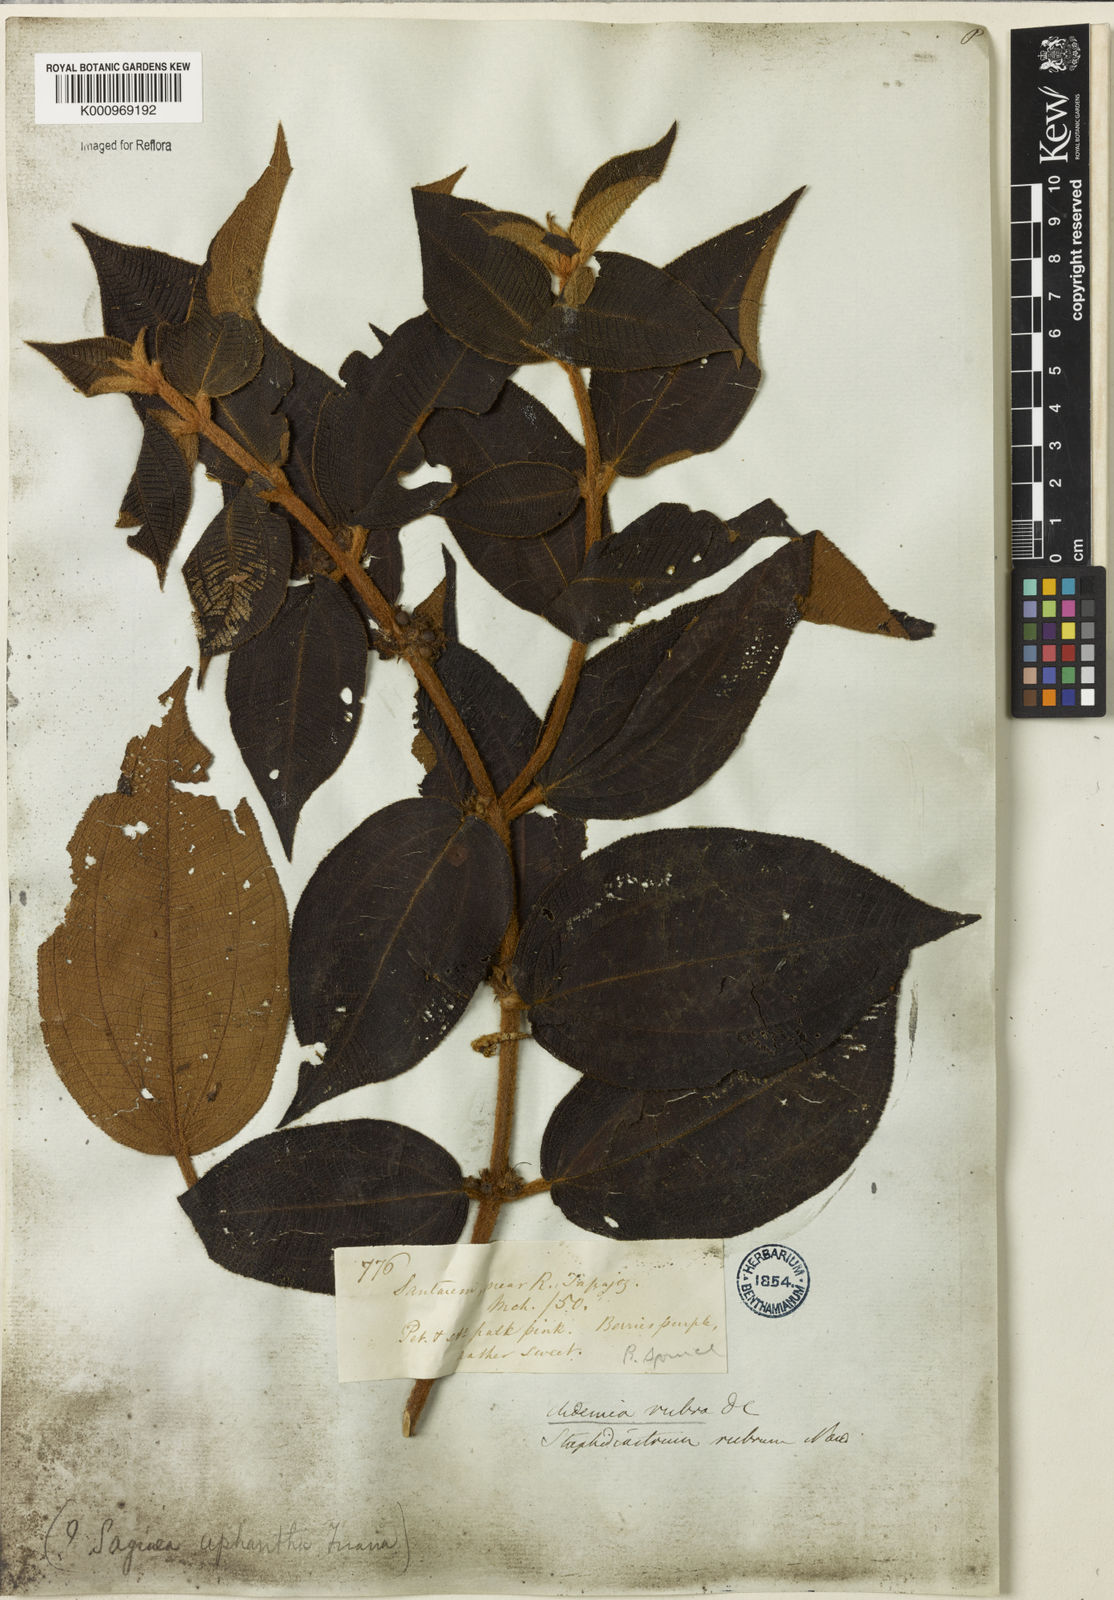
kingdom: Plantae
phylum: Tracheophyta
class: Magnoliopsida
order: Myrtales
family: Melastomataceae
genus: Miconia
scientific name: Miconia rubra
